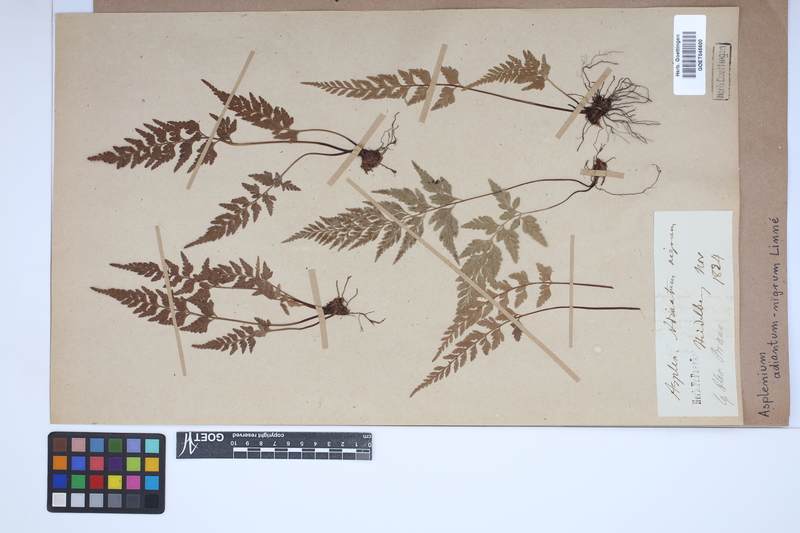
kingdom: Plantae
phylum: Tracheophyta
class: Polypodiopsida
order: Polypodiales
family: Aspleniaceae
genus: Asplenium
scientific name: Asplenium adiantum-nigrum
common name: Black spleenwort
